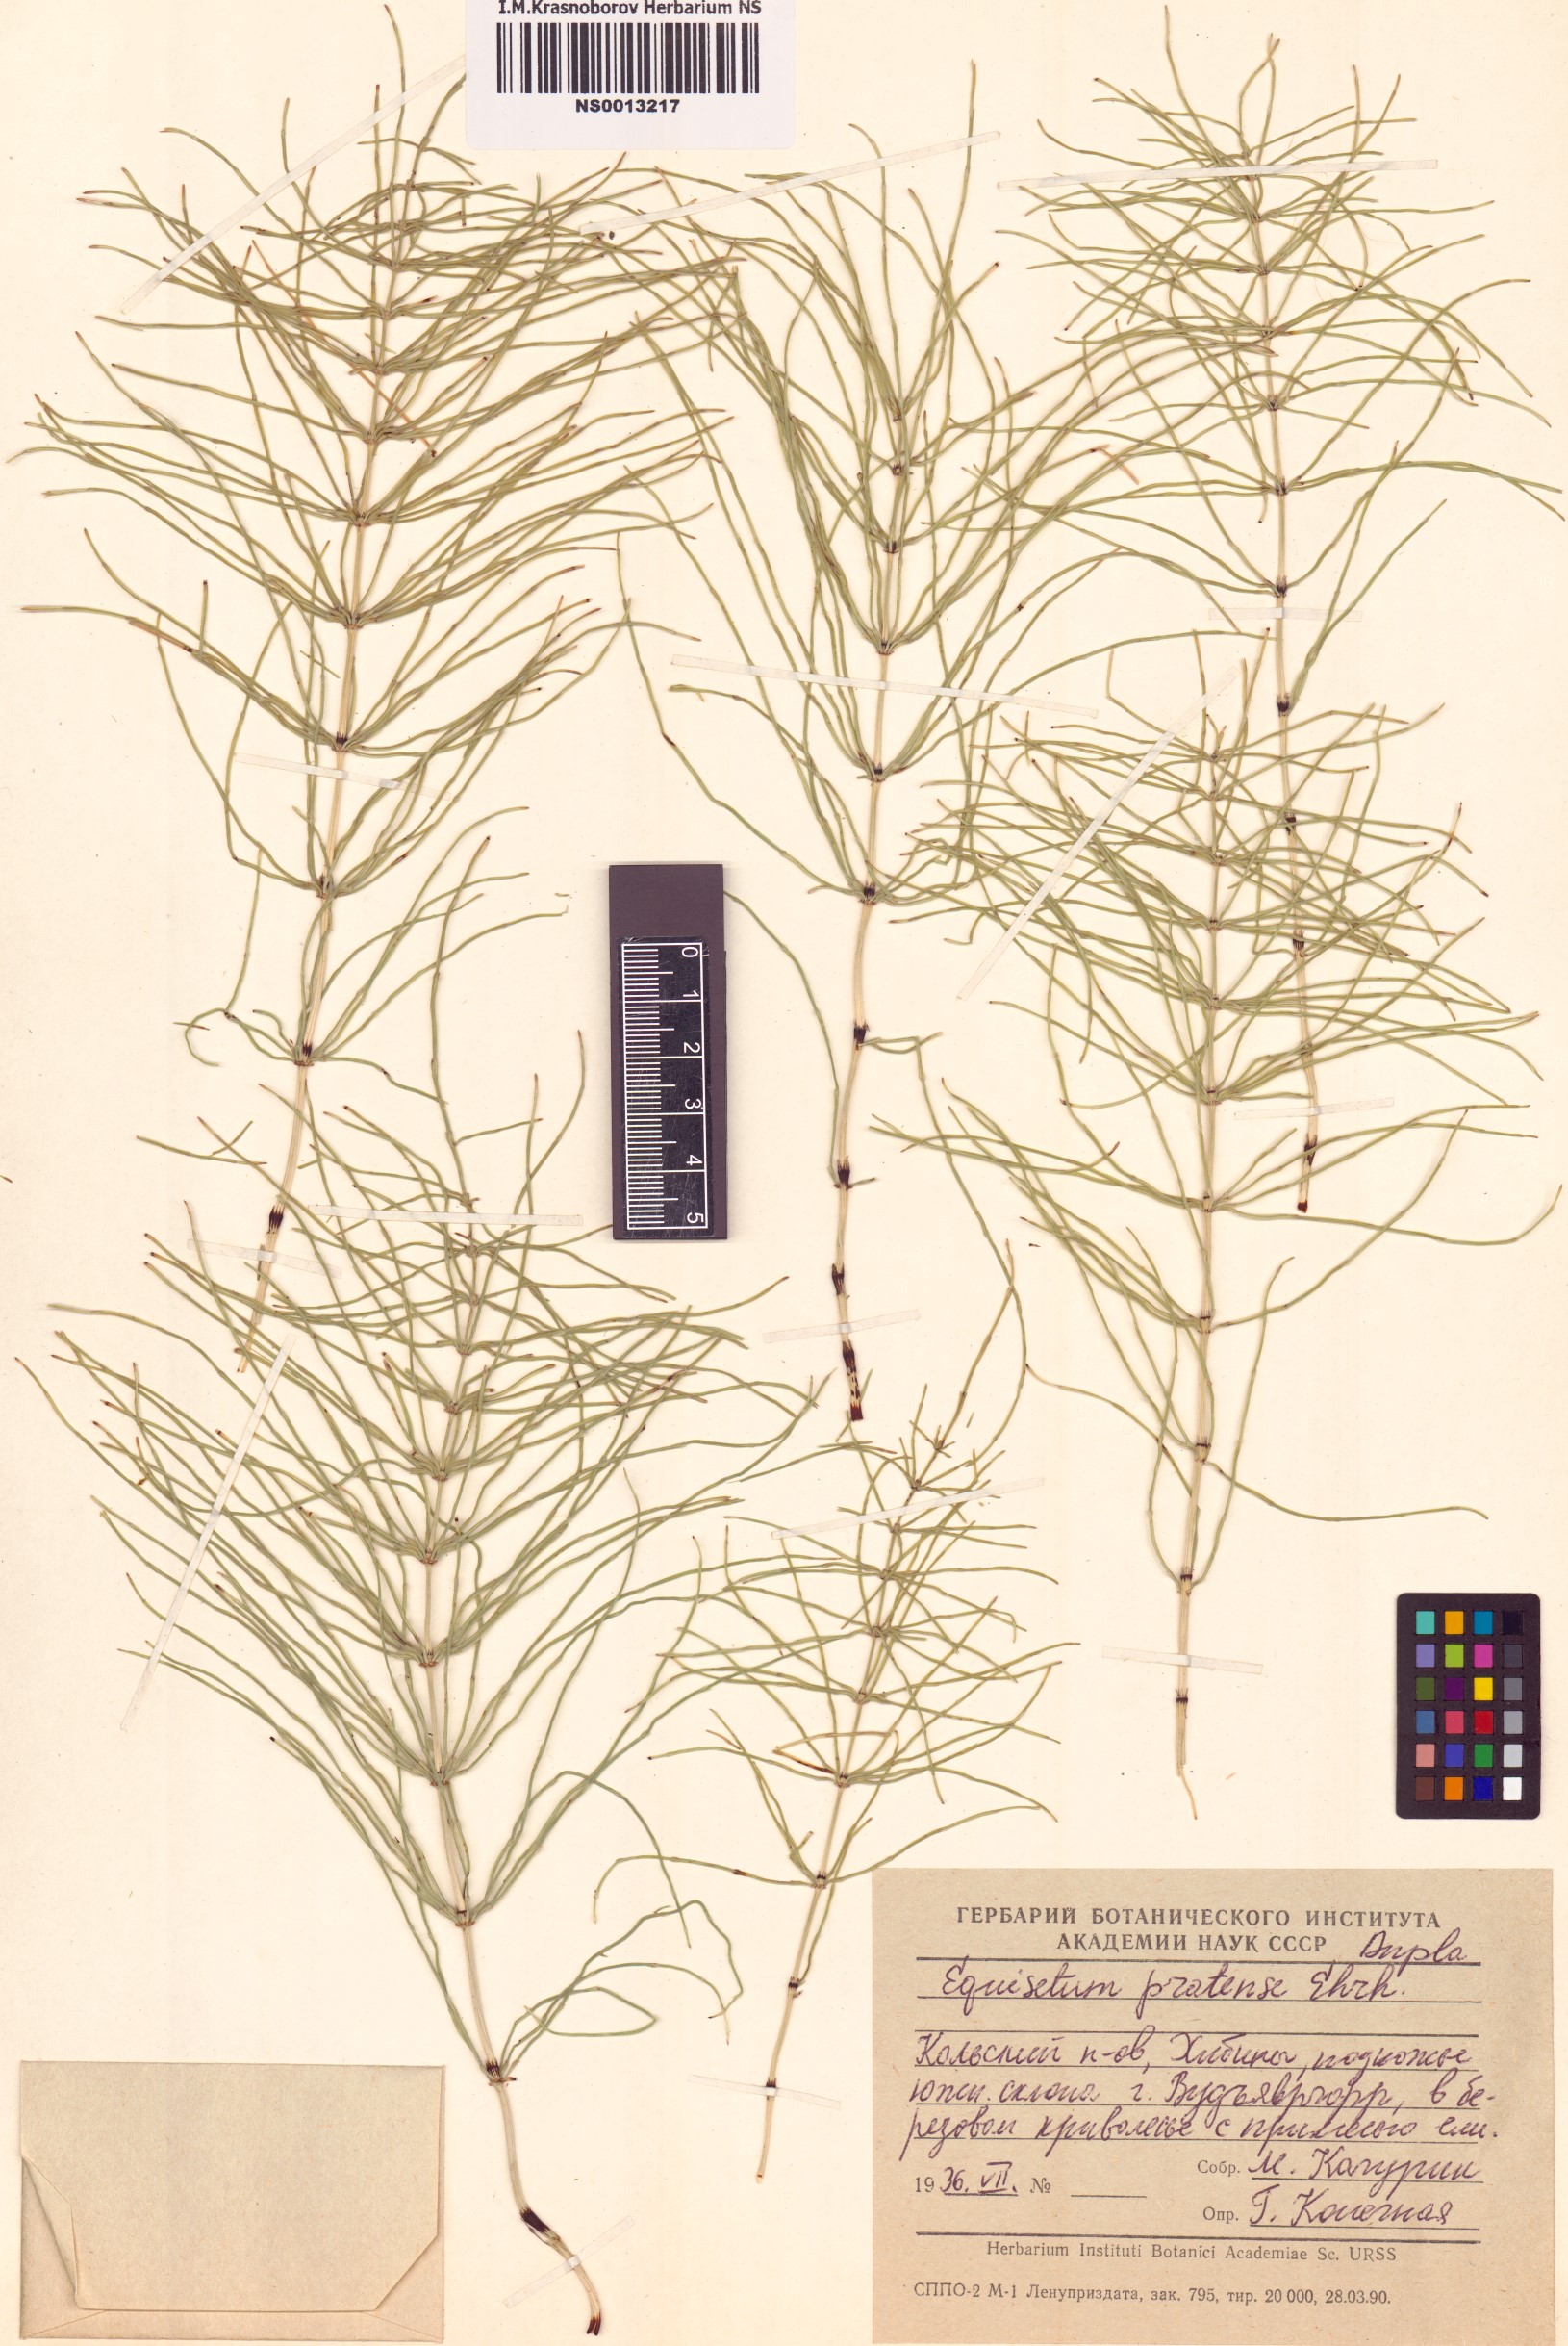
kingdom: Plantae
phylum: Tracheophyta
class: Polypodiopsida
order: Equisetales
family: Equisetaceae
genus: Equisetum
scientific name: Equisetum pratense
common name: Meadow horsetail
